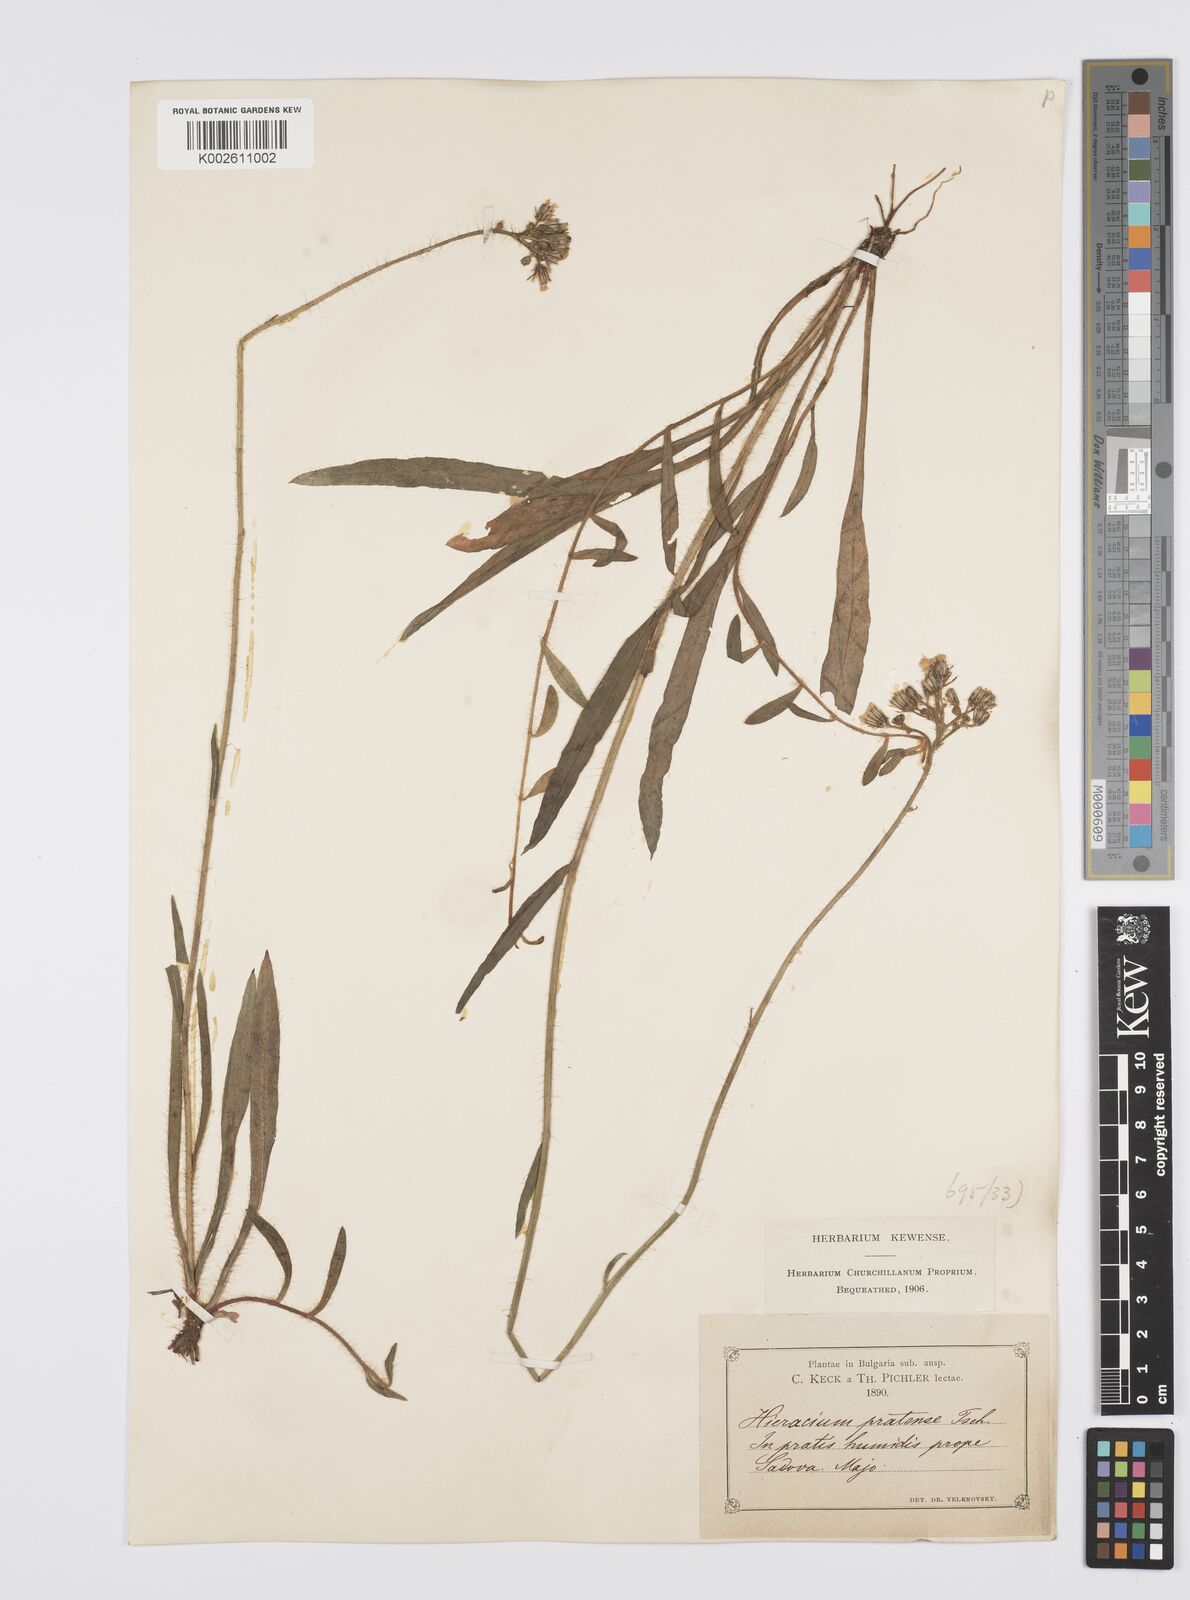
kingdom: Plantae
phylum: Tracheophyta
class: Magnoliopsida
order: Asterales
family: Asteraceae
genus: Pilosella
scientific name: Pilosella piloselloides
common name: Glaucous king-devil
